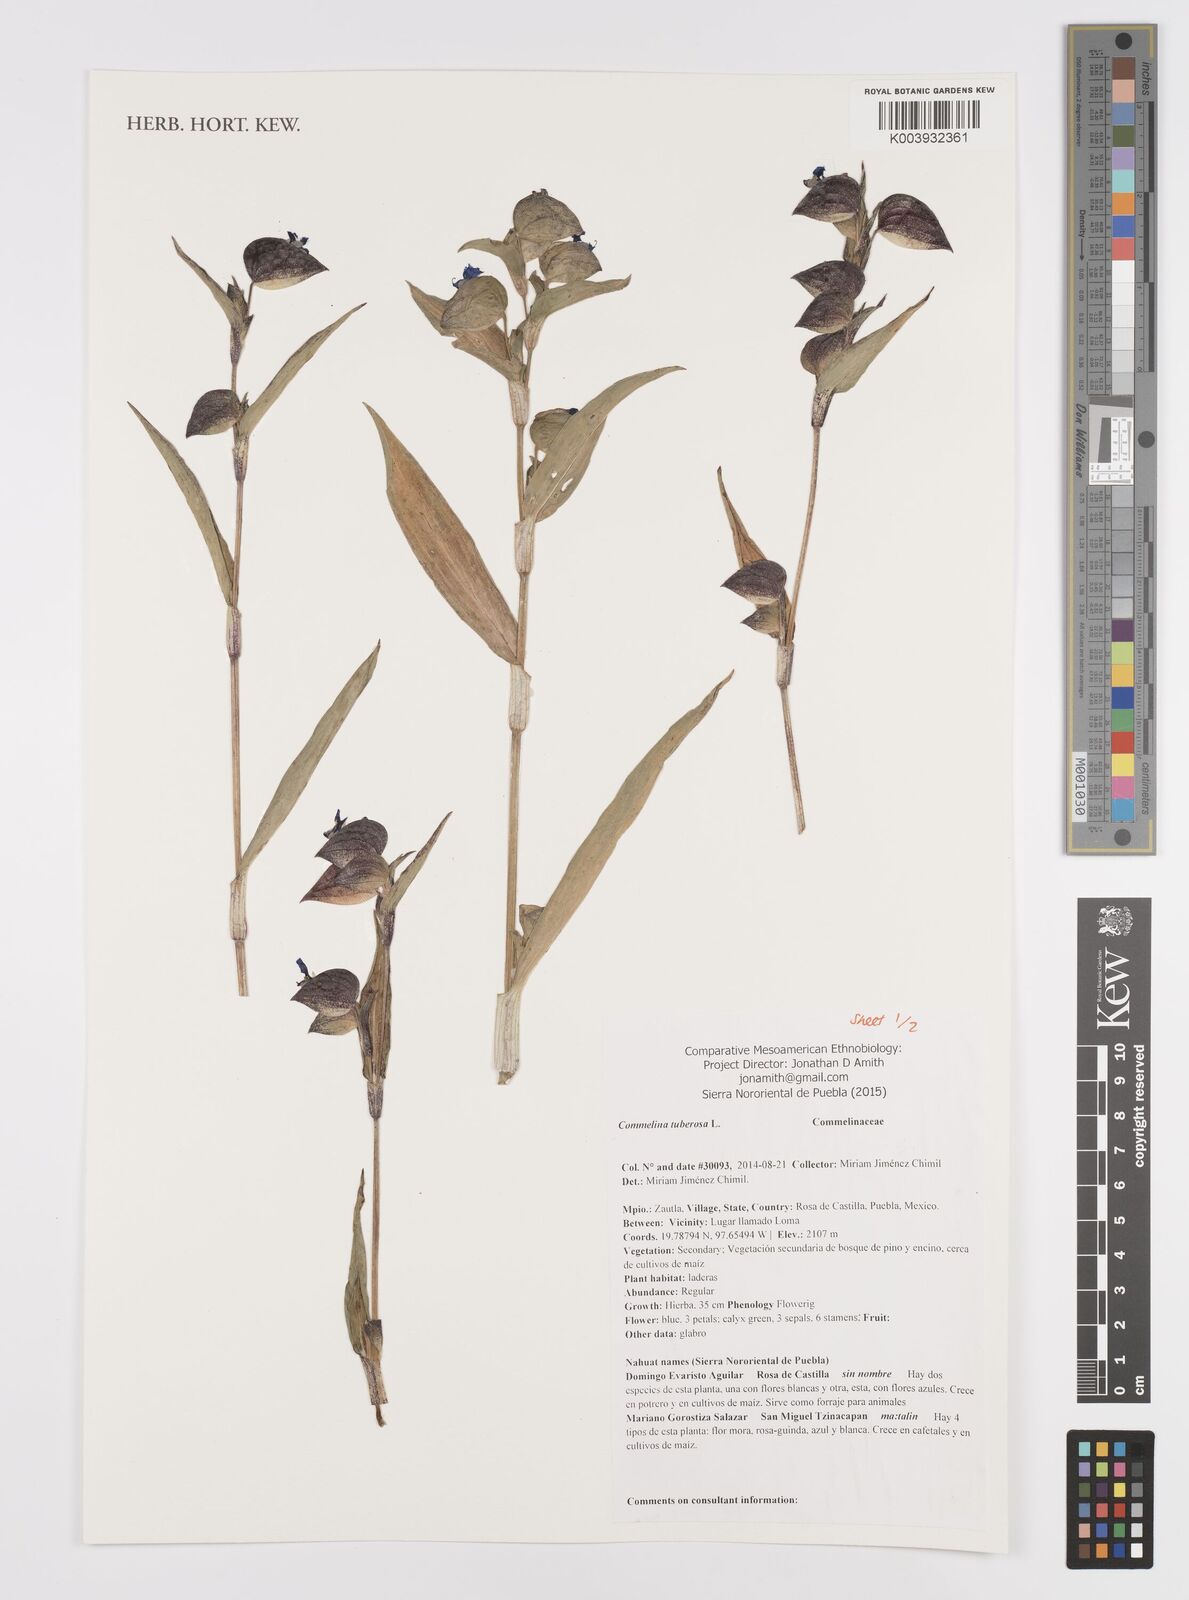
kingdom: Plantae
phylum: Tracheophyta
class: Liliopsida
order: Commelinales
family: Commelinaceae
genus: Commelina
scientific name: Commelina tuberosa
